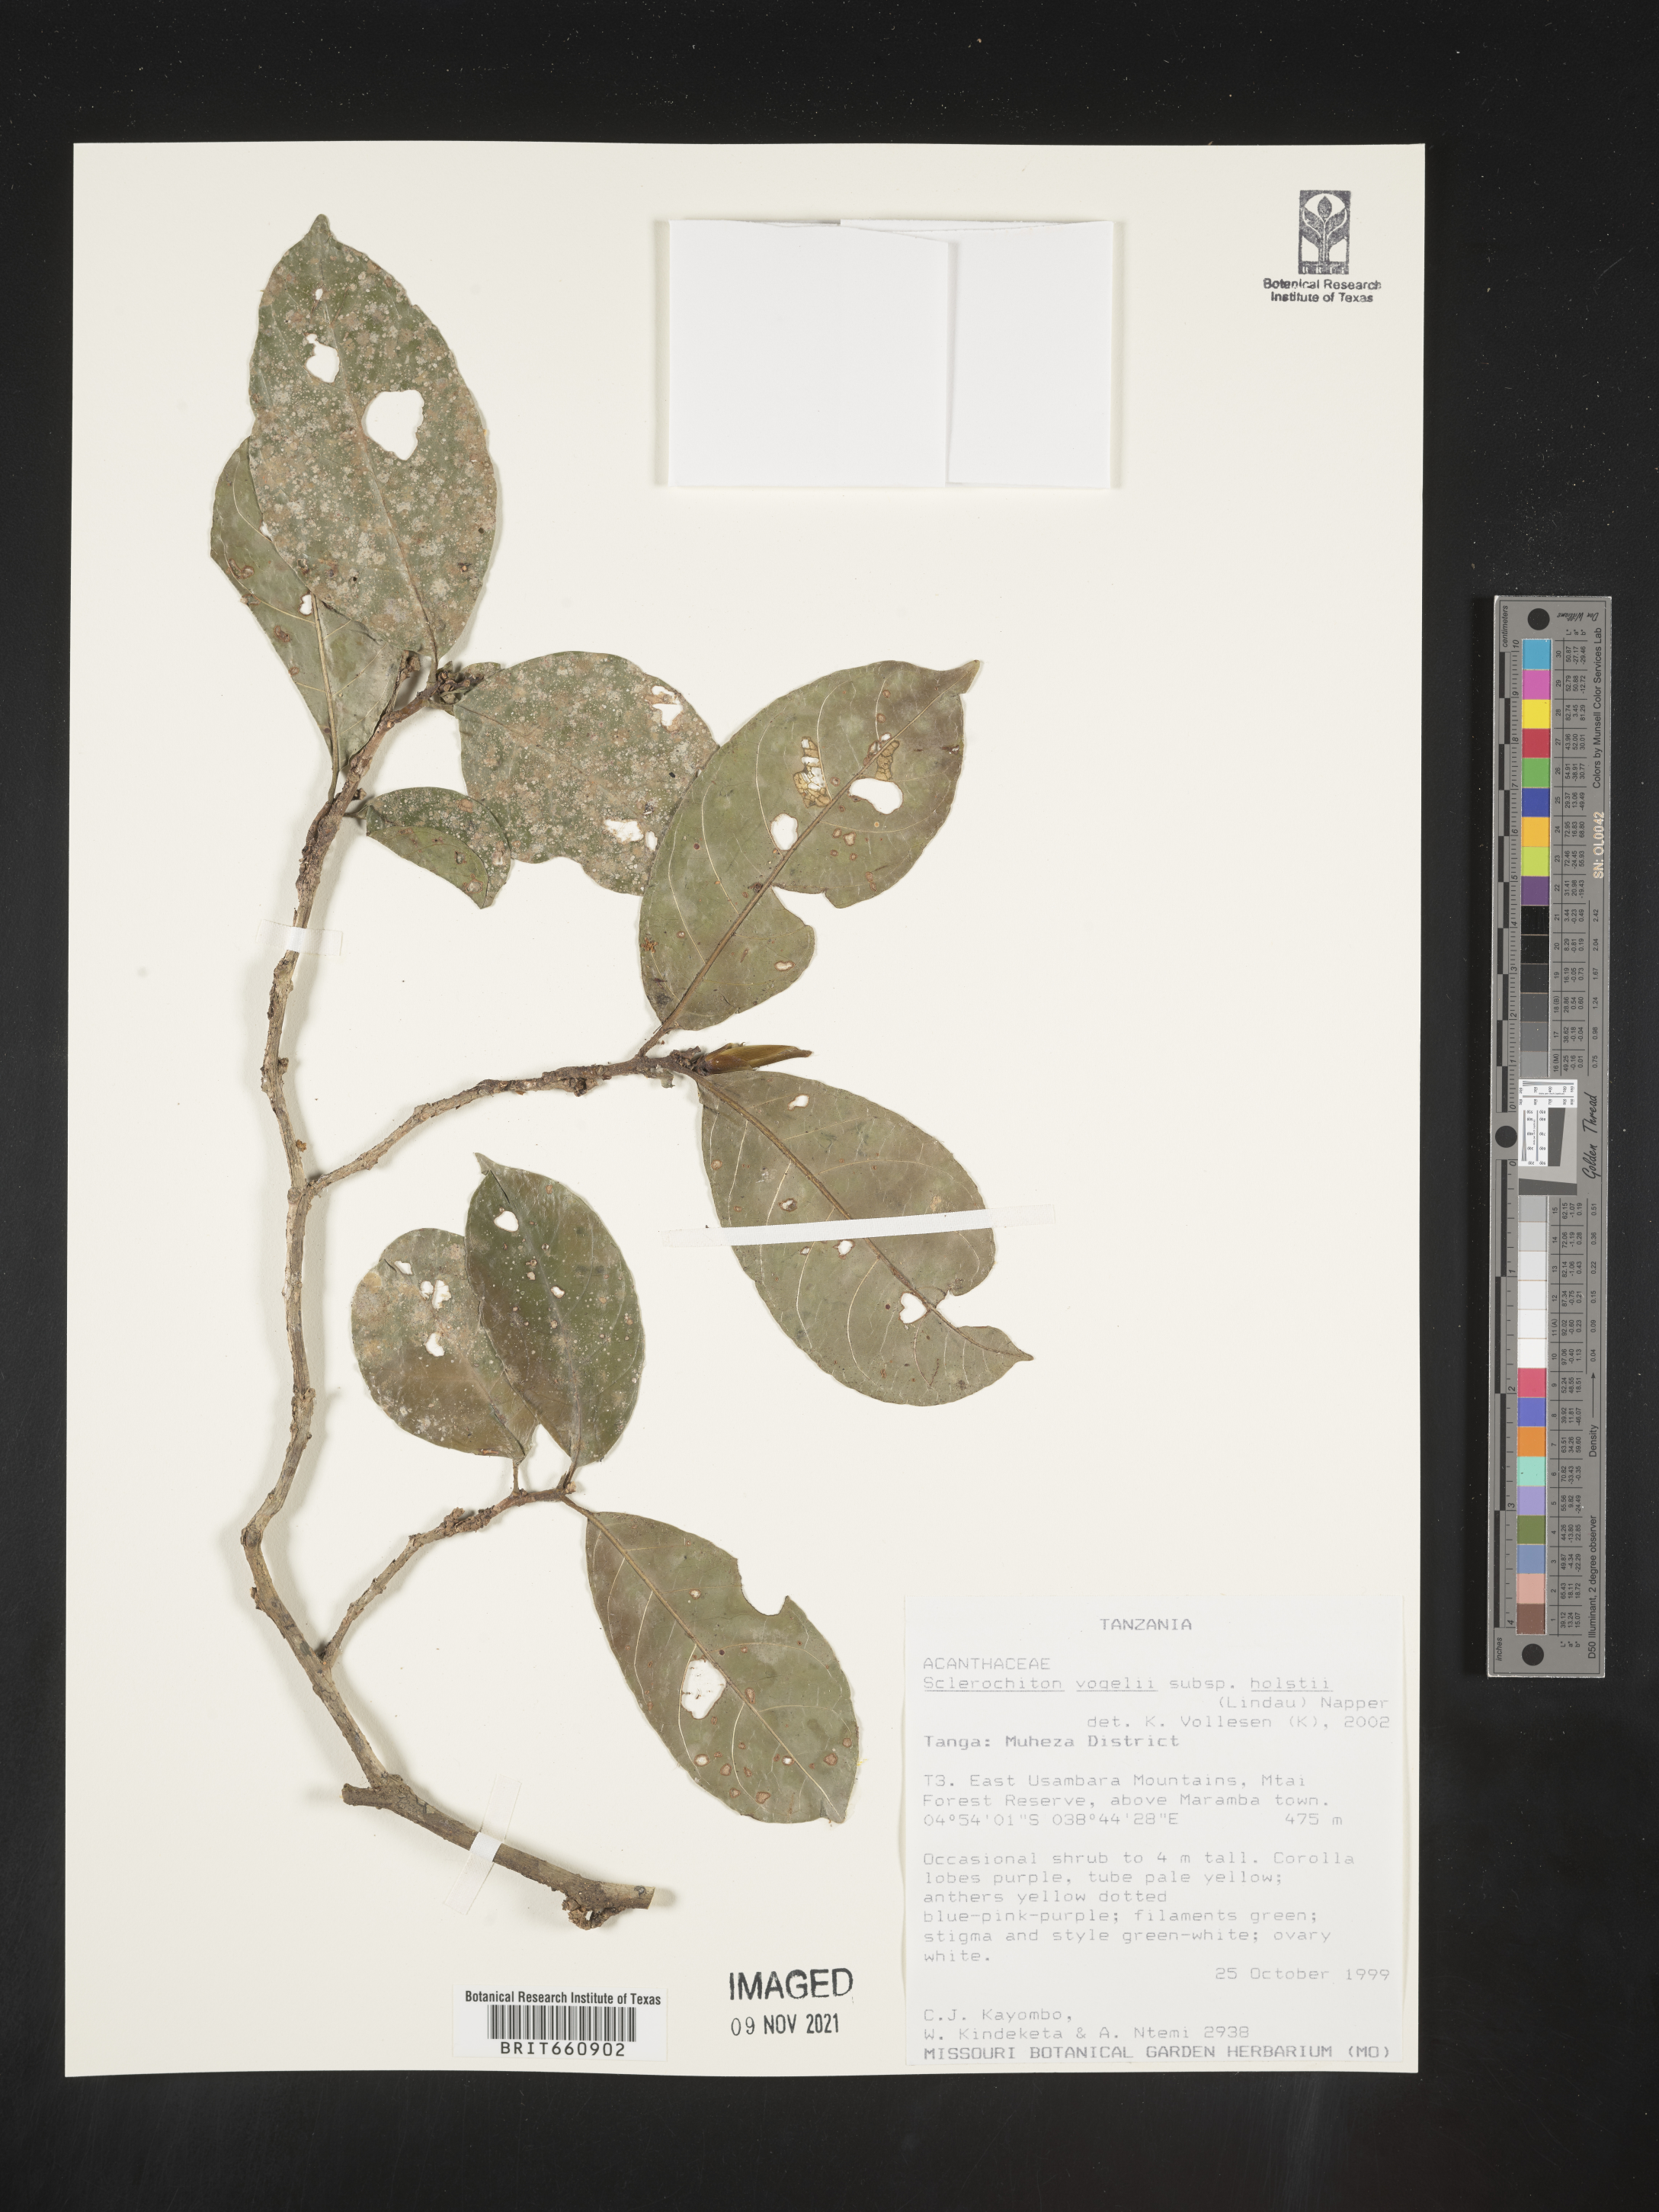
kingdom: Plantae
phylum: Tracheophyta
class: Magnoliopsida
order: Lamiales
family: Acanthaceae
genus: Sclerochiton
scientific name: Sclerochiton
